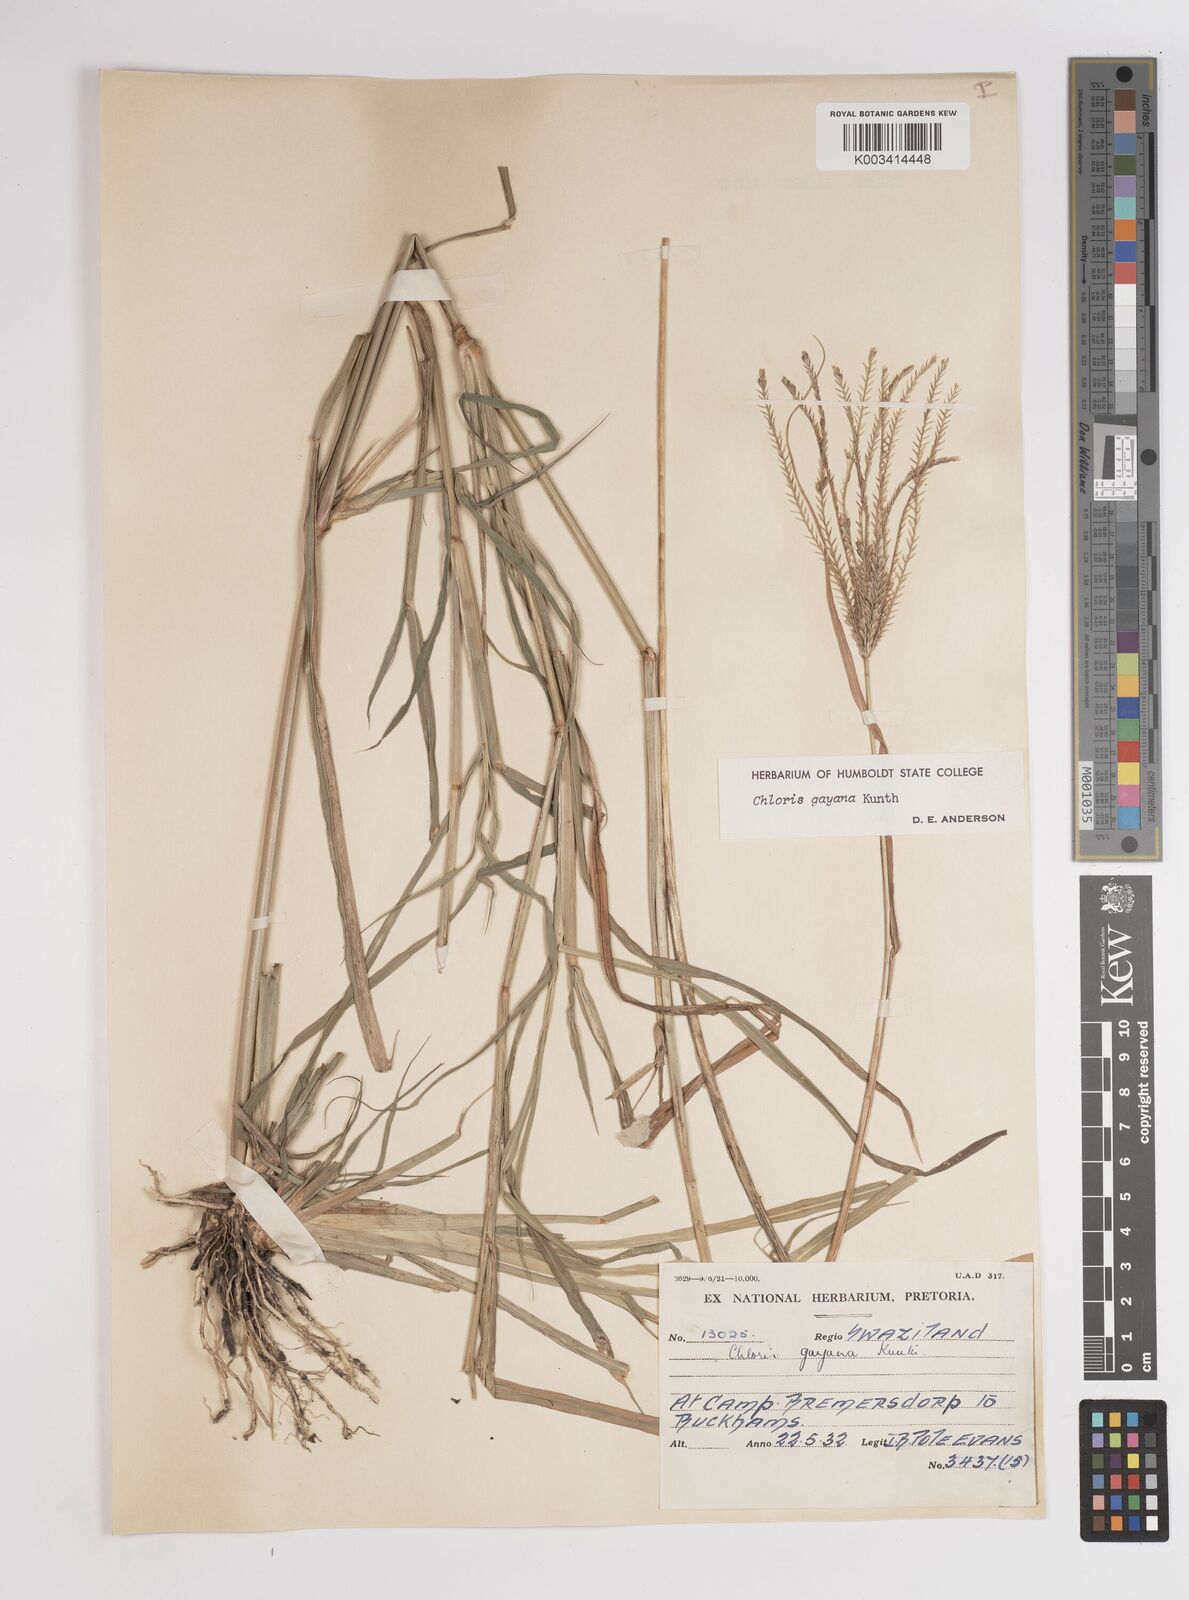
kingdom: Plantae
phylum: Tracheophyta
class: Liliopsida
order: Poales
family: Poaceae
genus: Chloris
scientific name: Chloris gayana
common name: Rhodes grass
